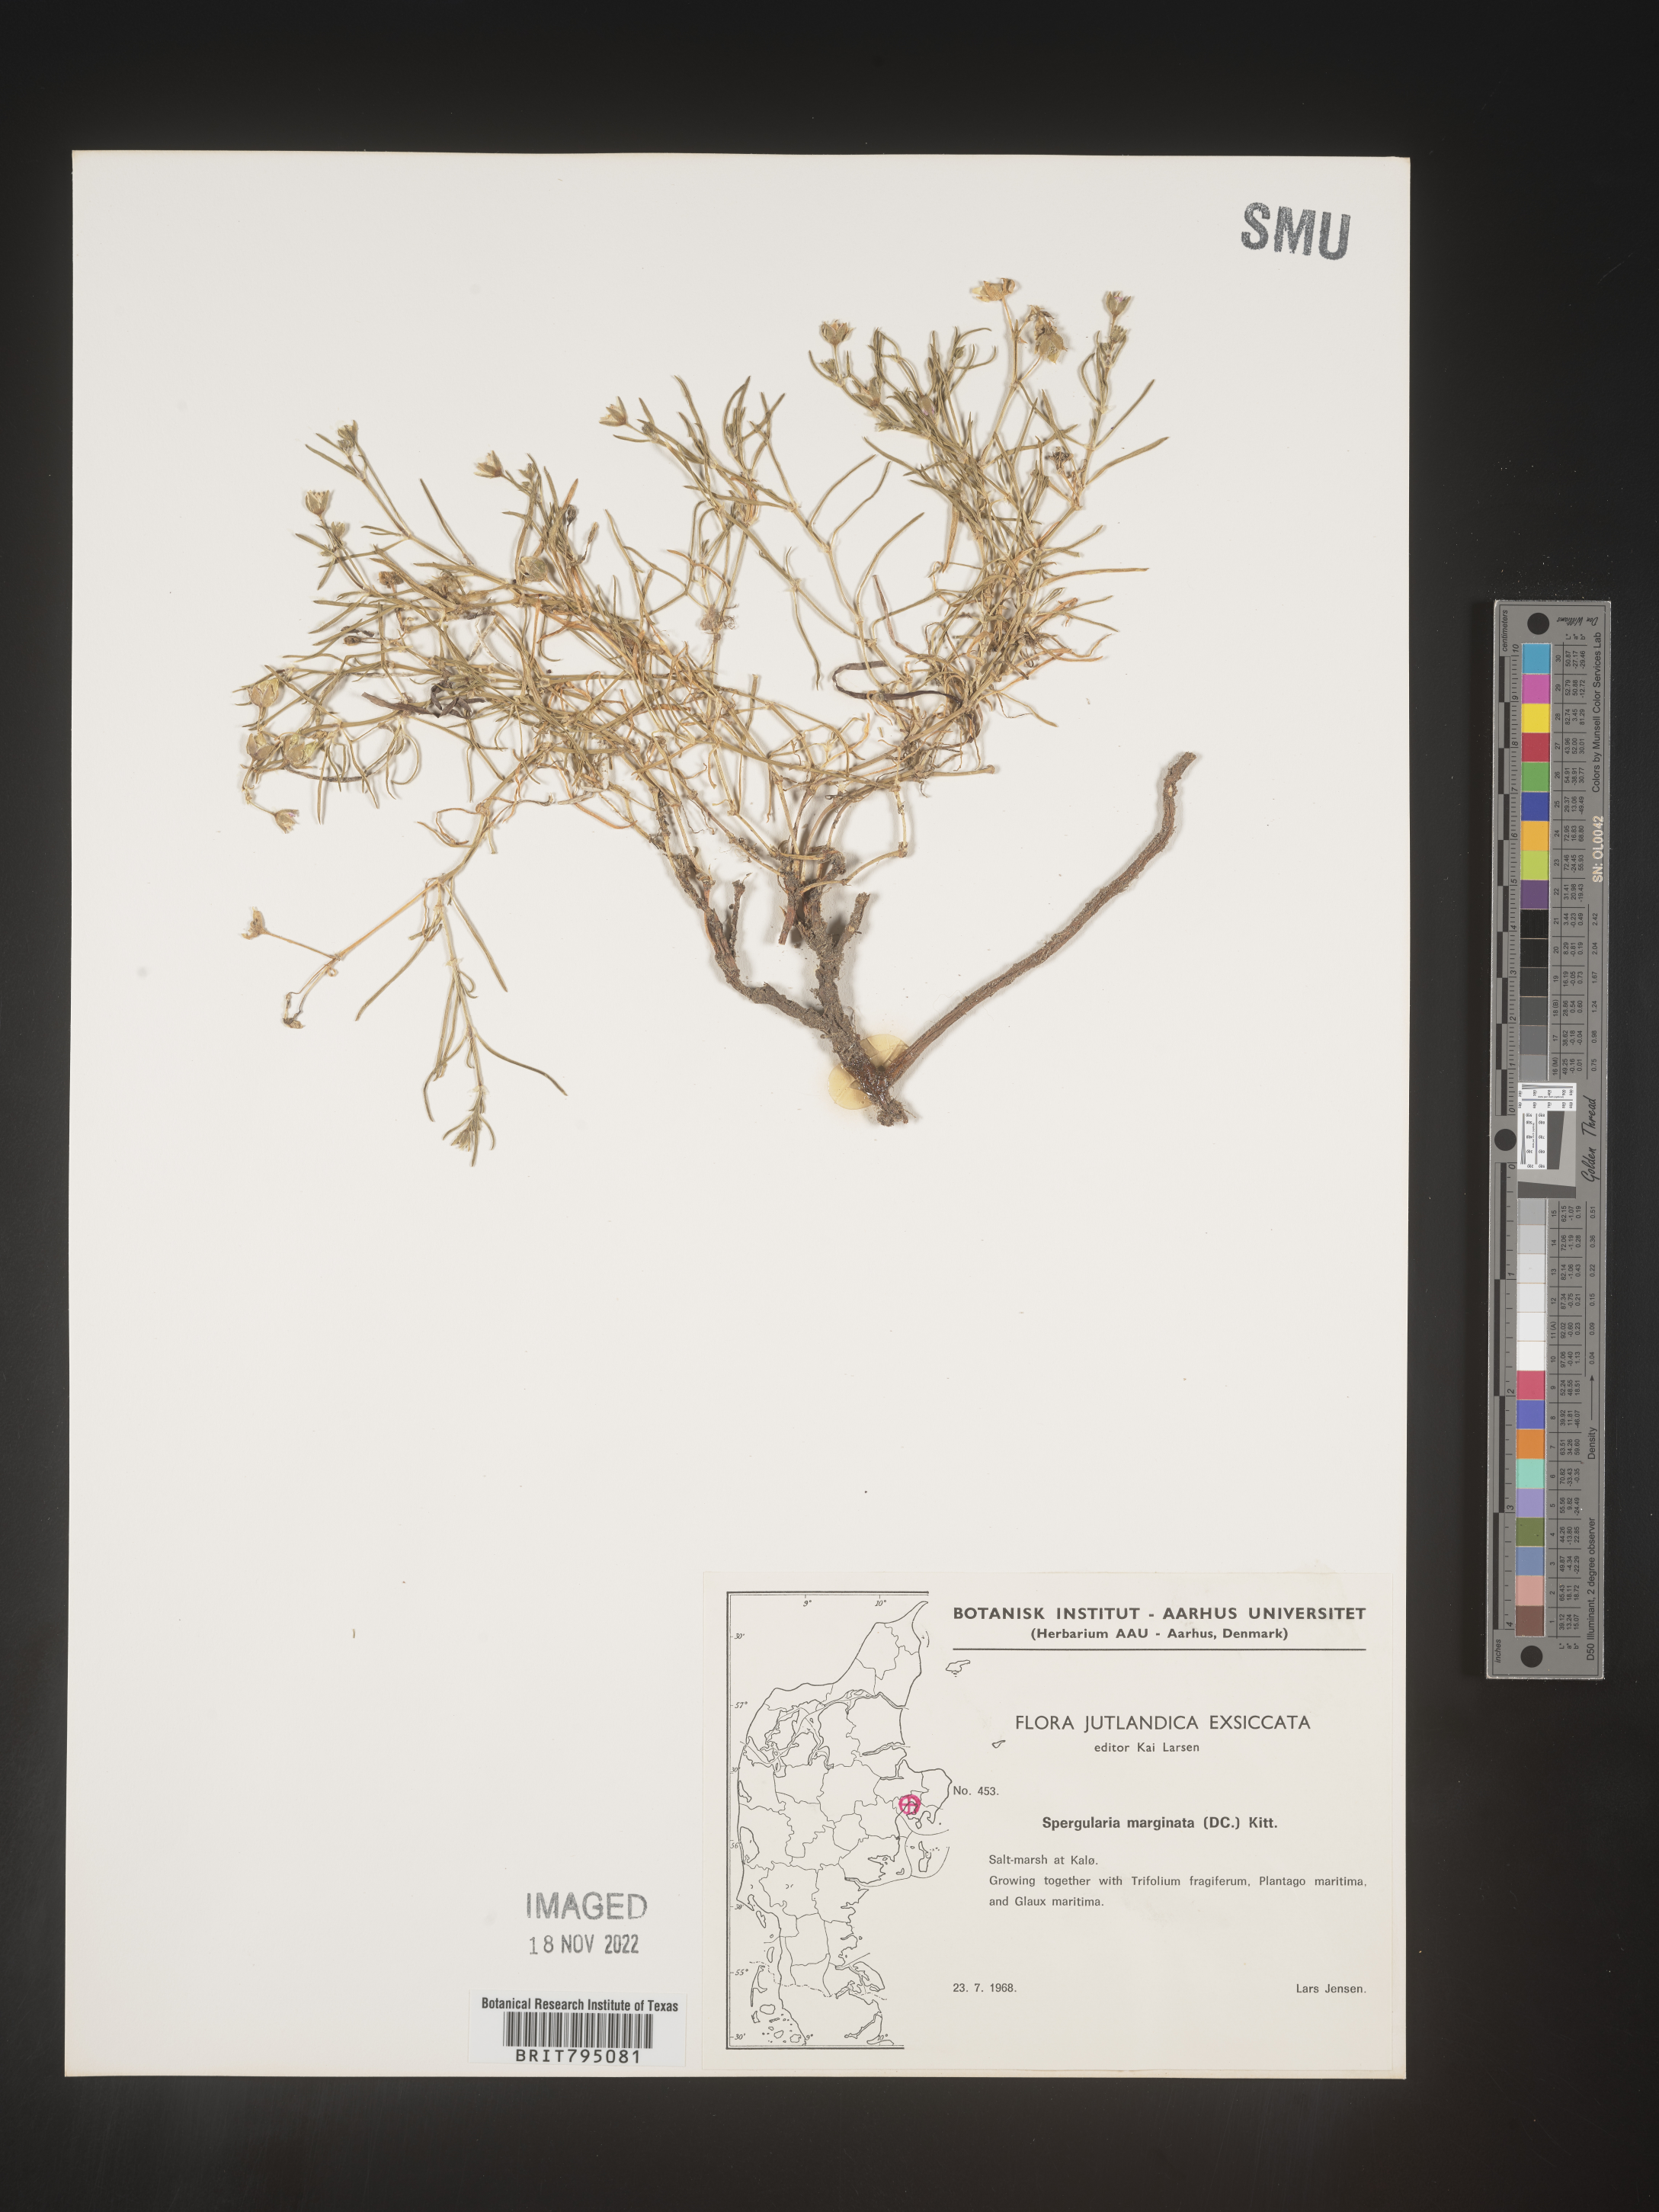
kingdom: Plantae
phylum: Tracheophyta
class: Magnoliopsida
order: Caryophyllales
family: Caryophyllaceae
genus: Spergularia
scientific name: Spergularia media
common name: Greater sea-spurrey
